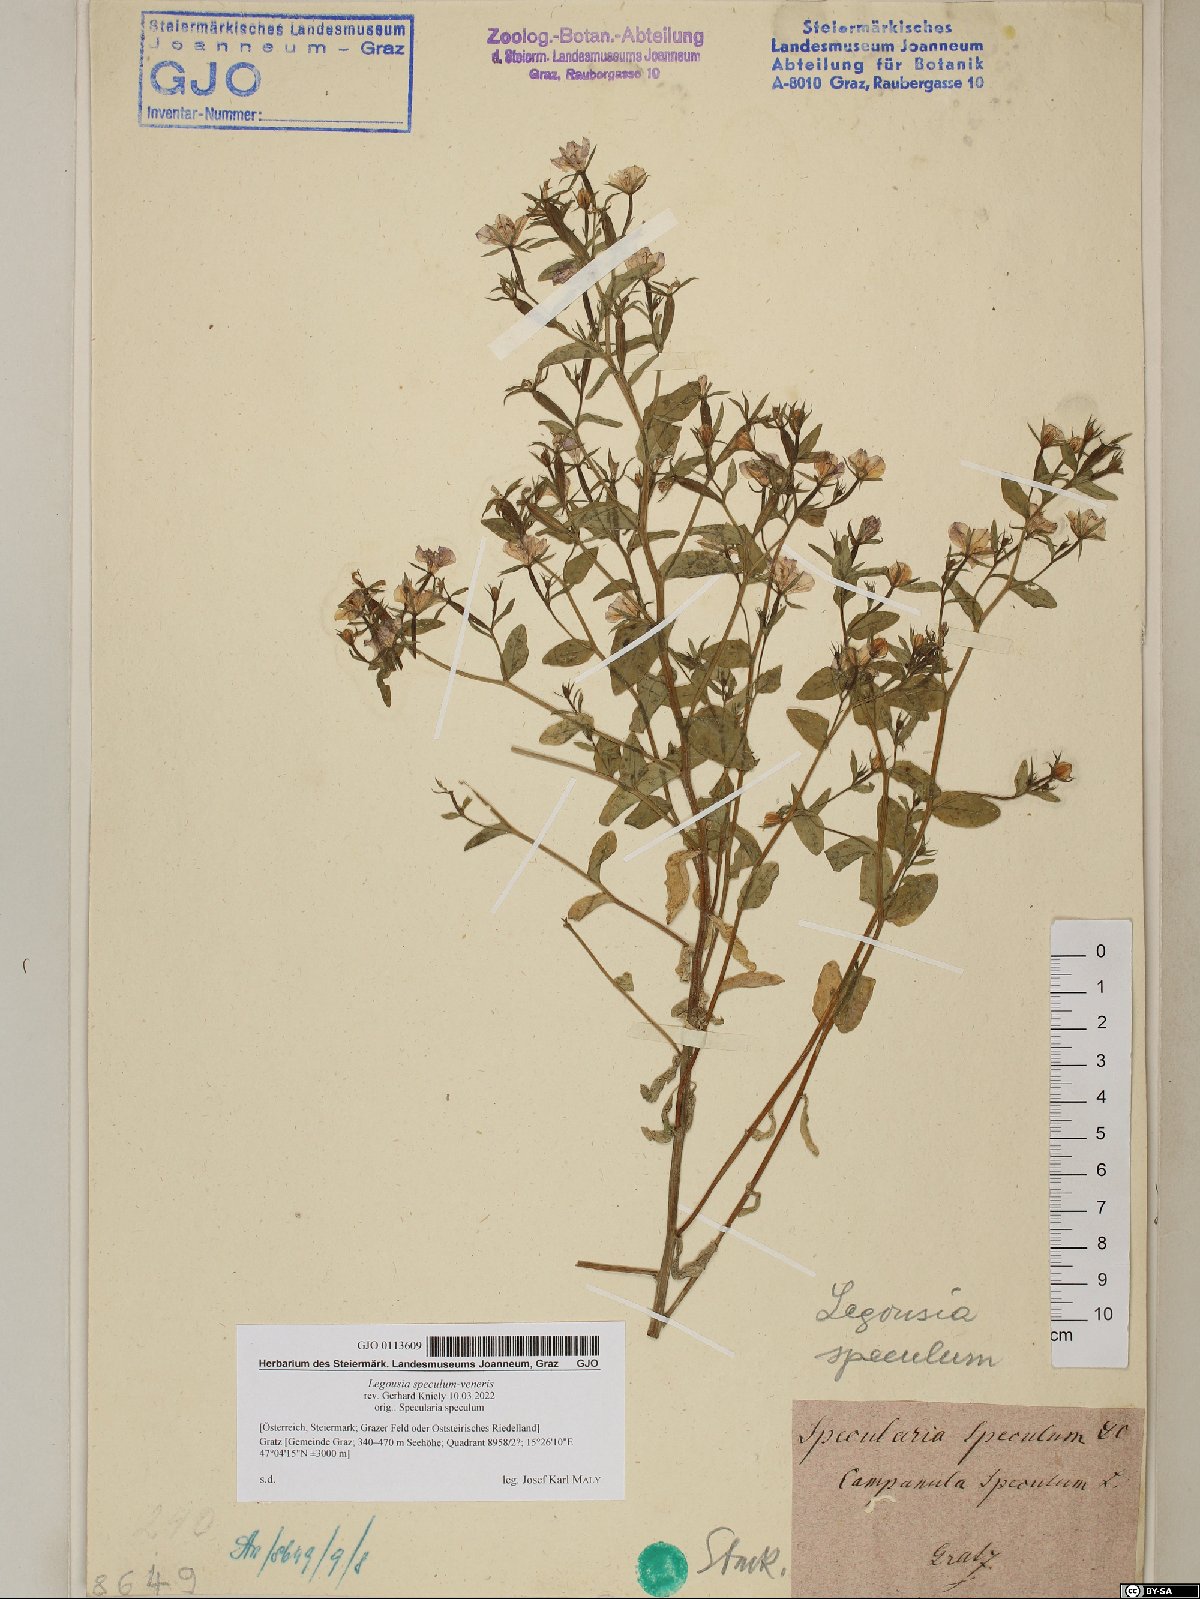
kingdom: Plantae
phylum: Tracheophyta
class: Magnoliopsida
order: Asterales
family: Campanulaceae
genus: Legousia
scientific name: Legousia speculum-veneris
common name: Large venus's-looking-glass
